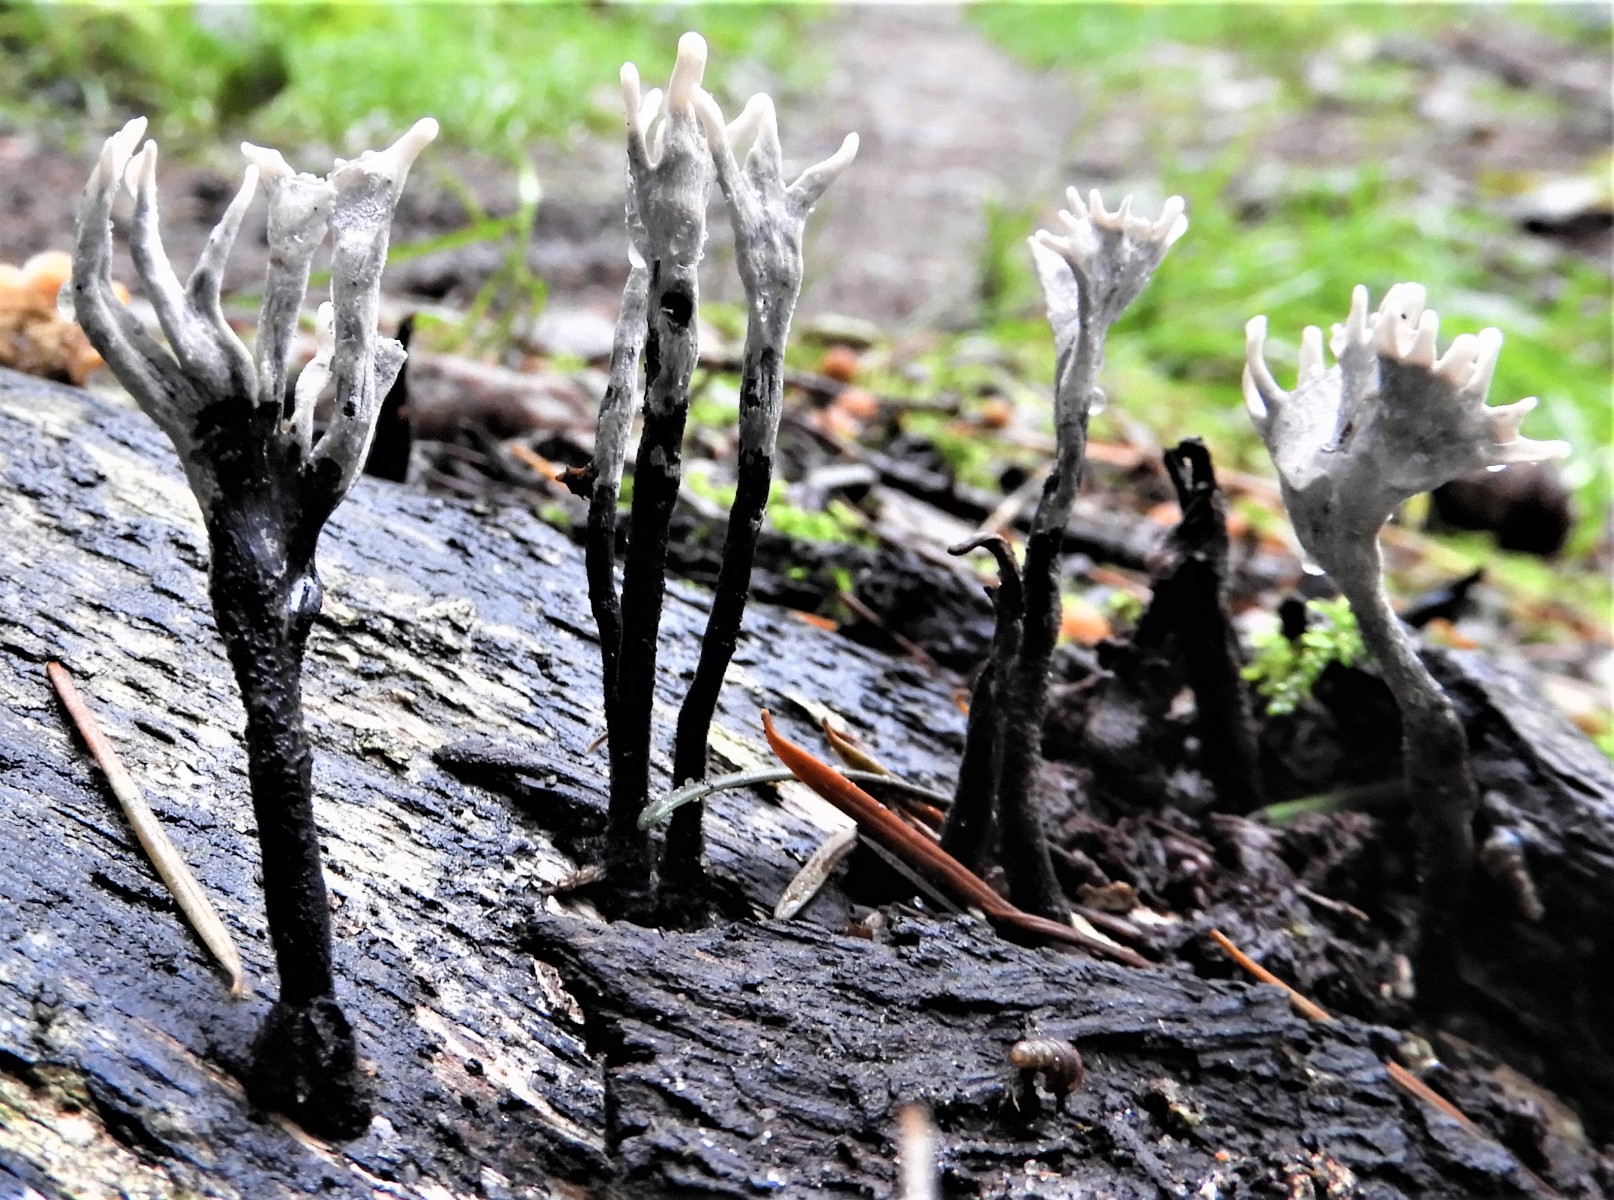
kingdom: Fungi
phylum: Ascomycota
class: Sordariomycetes
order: Xylariales
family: Xylariaceae
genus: Xylaria
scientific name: Xylaria hypoxylon
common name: grenet stødsvamp
